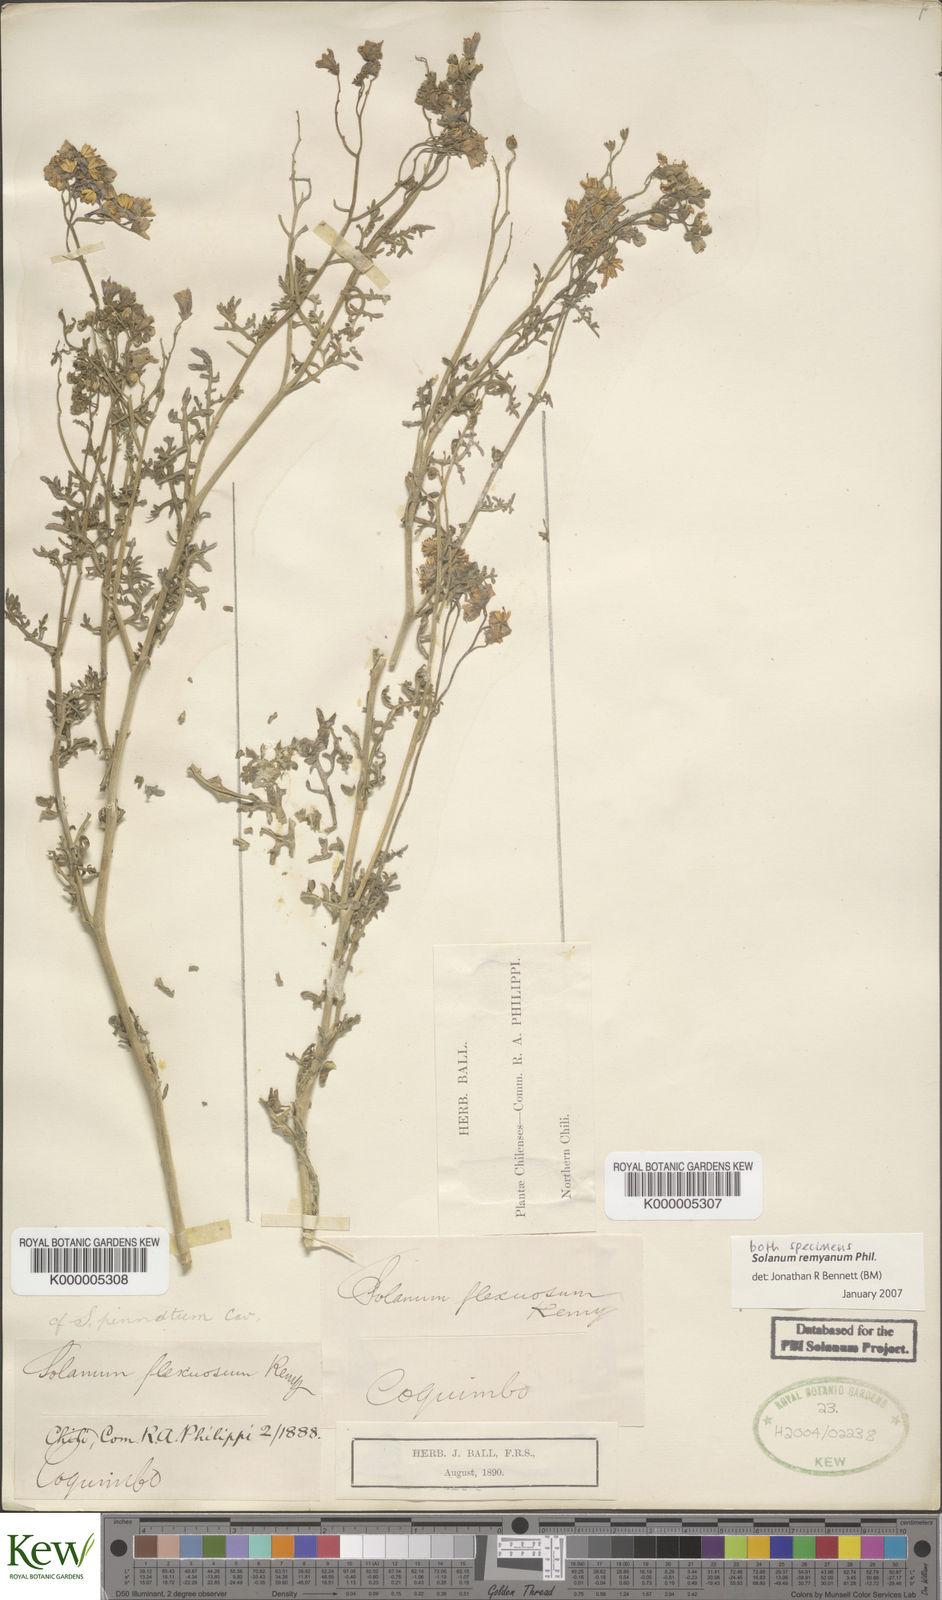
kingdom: Plantae
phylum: Tracheophyta
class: Magnoliopsida
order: Solanales
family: Solanaceae
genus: Solanum
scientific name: Solanum remyanum
